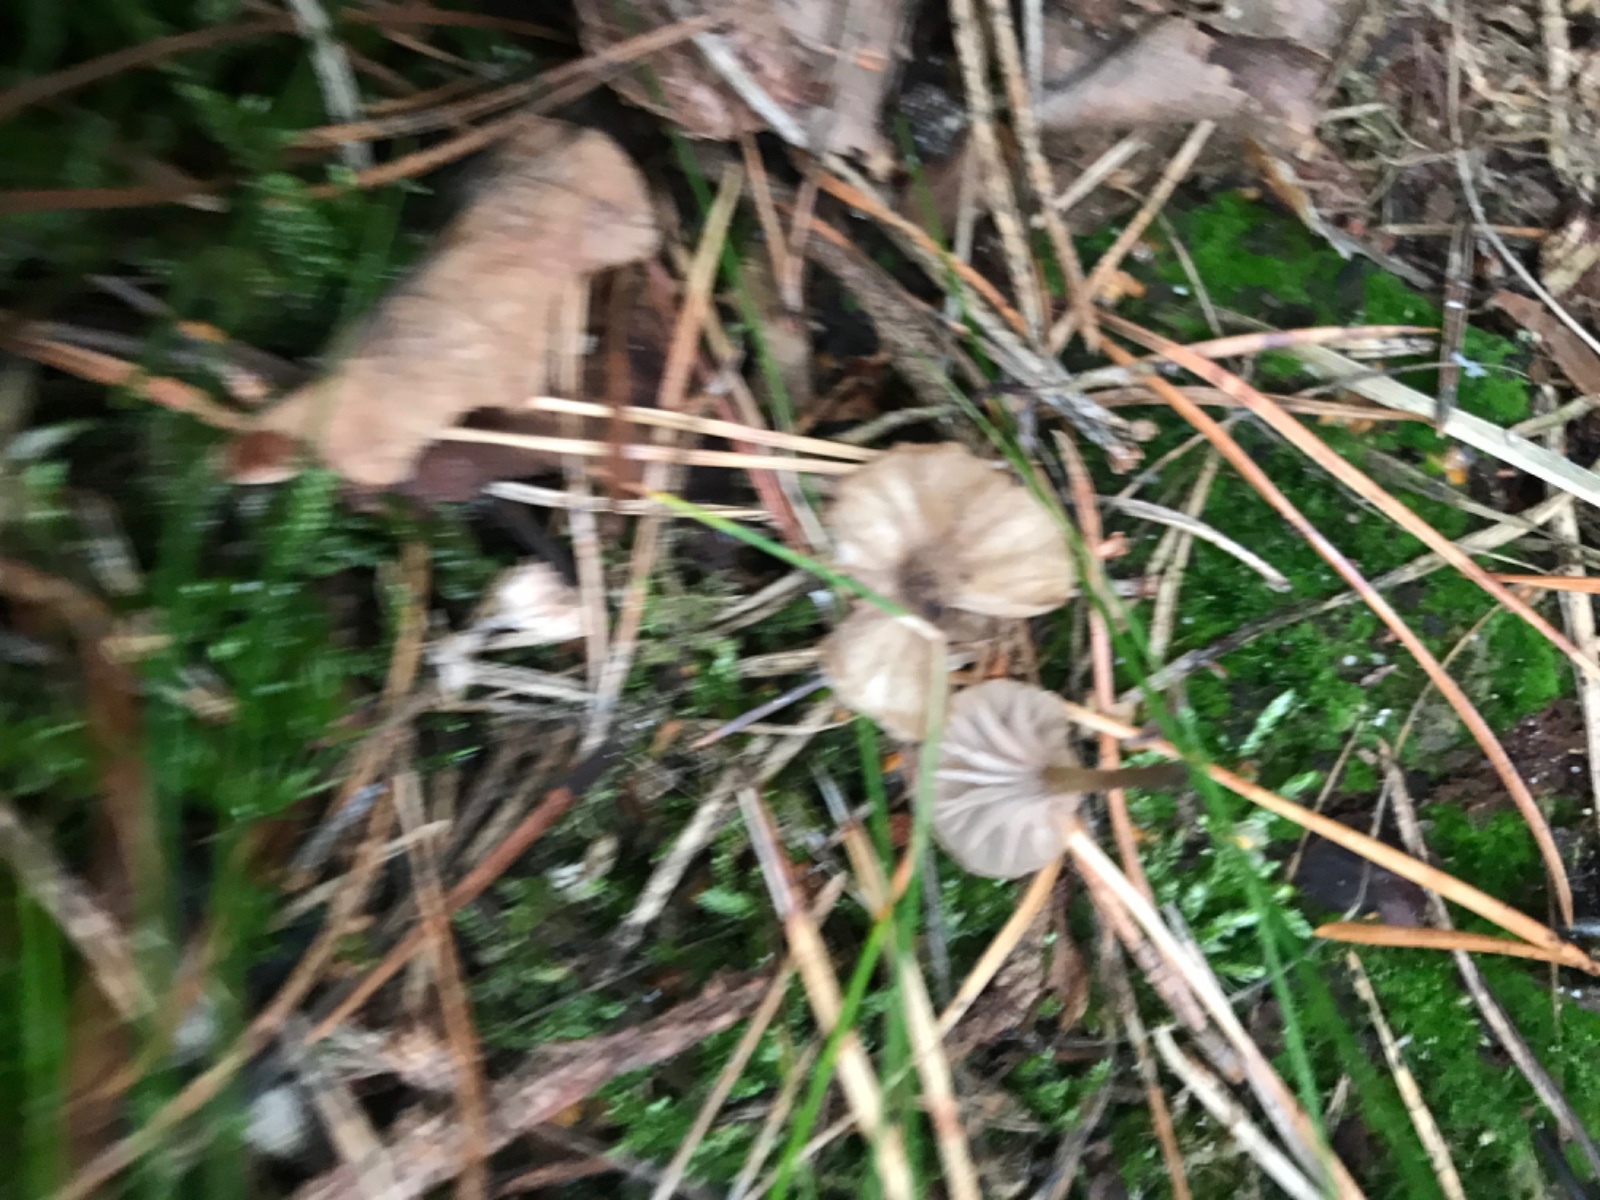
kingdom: Fungi
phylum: Basidiomycota
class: Agaricomycetes
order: Hymenochaetales
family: Rickenellaceae
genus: Rickenella
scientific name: Rickenella swartzii
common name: finstokket mosnavlehat
